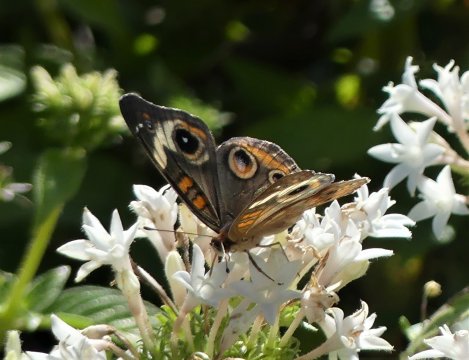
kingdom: Animalia
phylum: Arthropoda
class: Insecta
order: Lepidoptera
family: Nymphalidae
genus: Junonia
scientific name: Junonia coenia
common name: Common Buckeye
